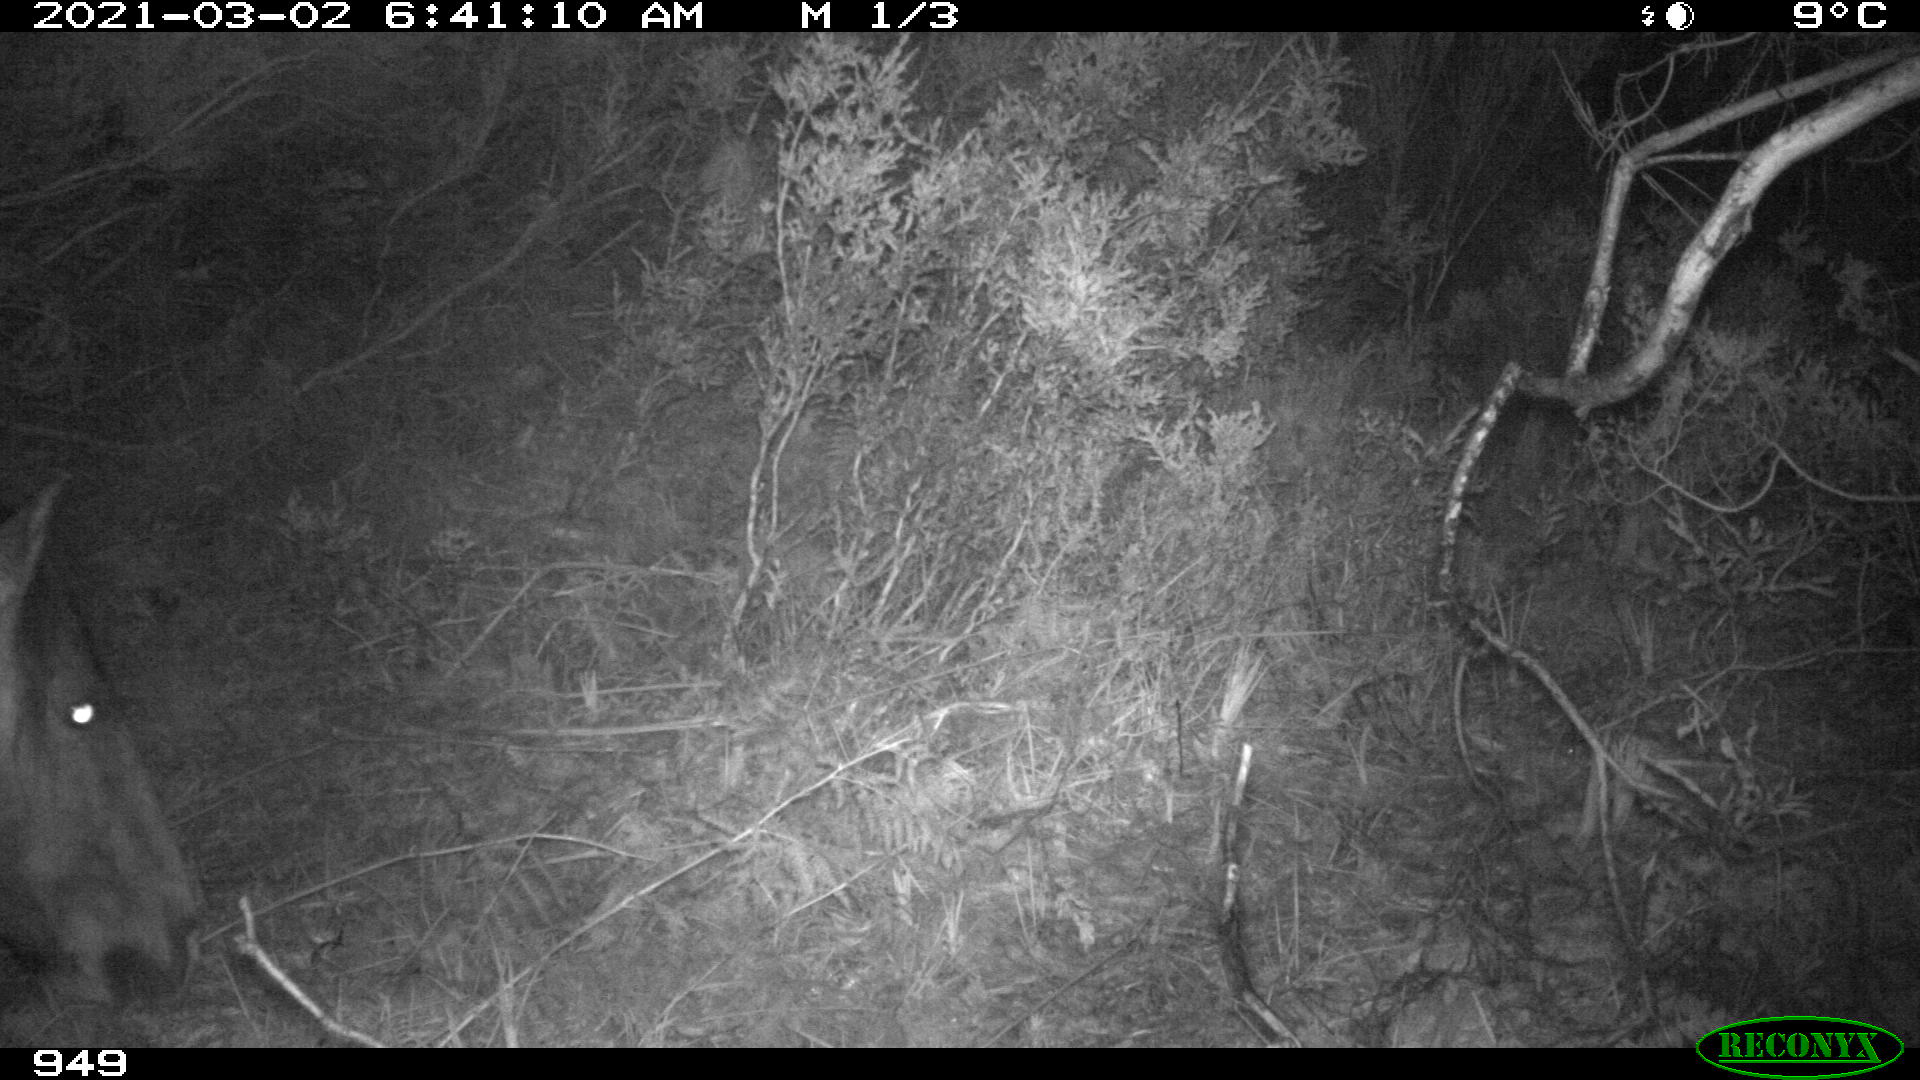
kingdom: Animalia
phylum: Chordata
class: Mammalia
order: Perissodactyla
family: Equidae
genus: Equus
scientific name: Equus caballus
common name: Horse
